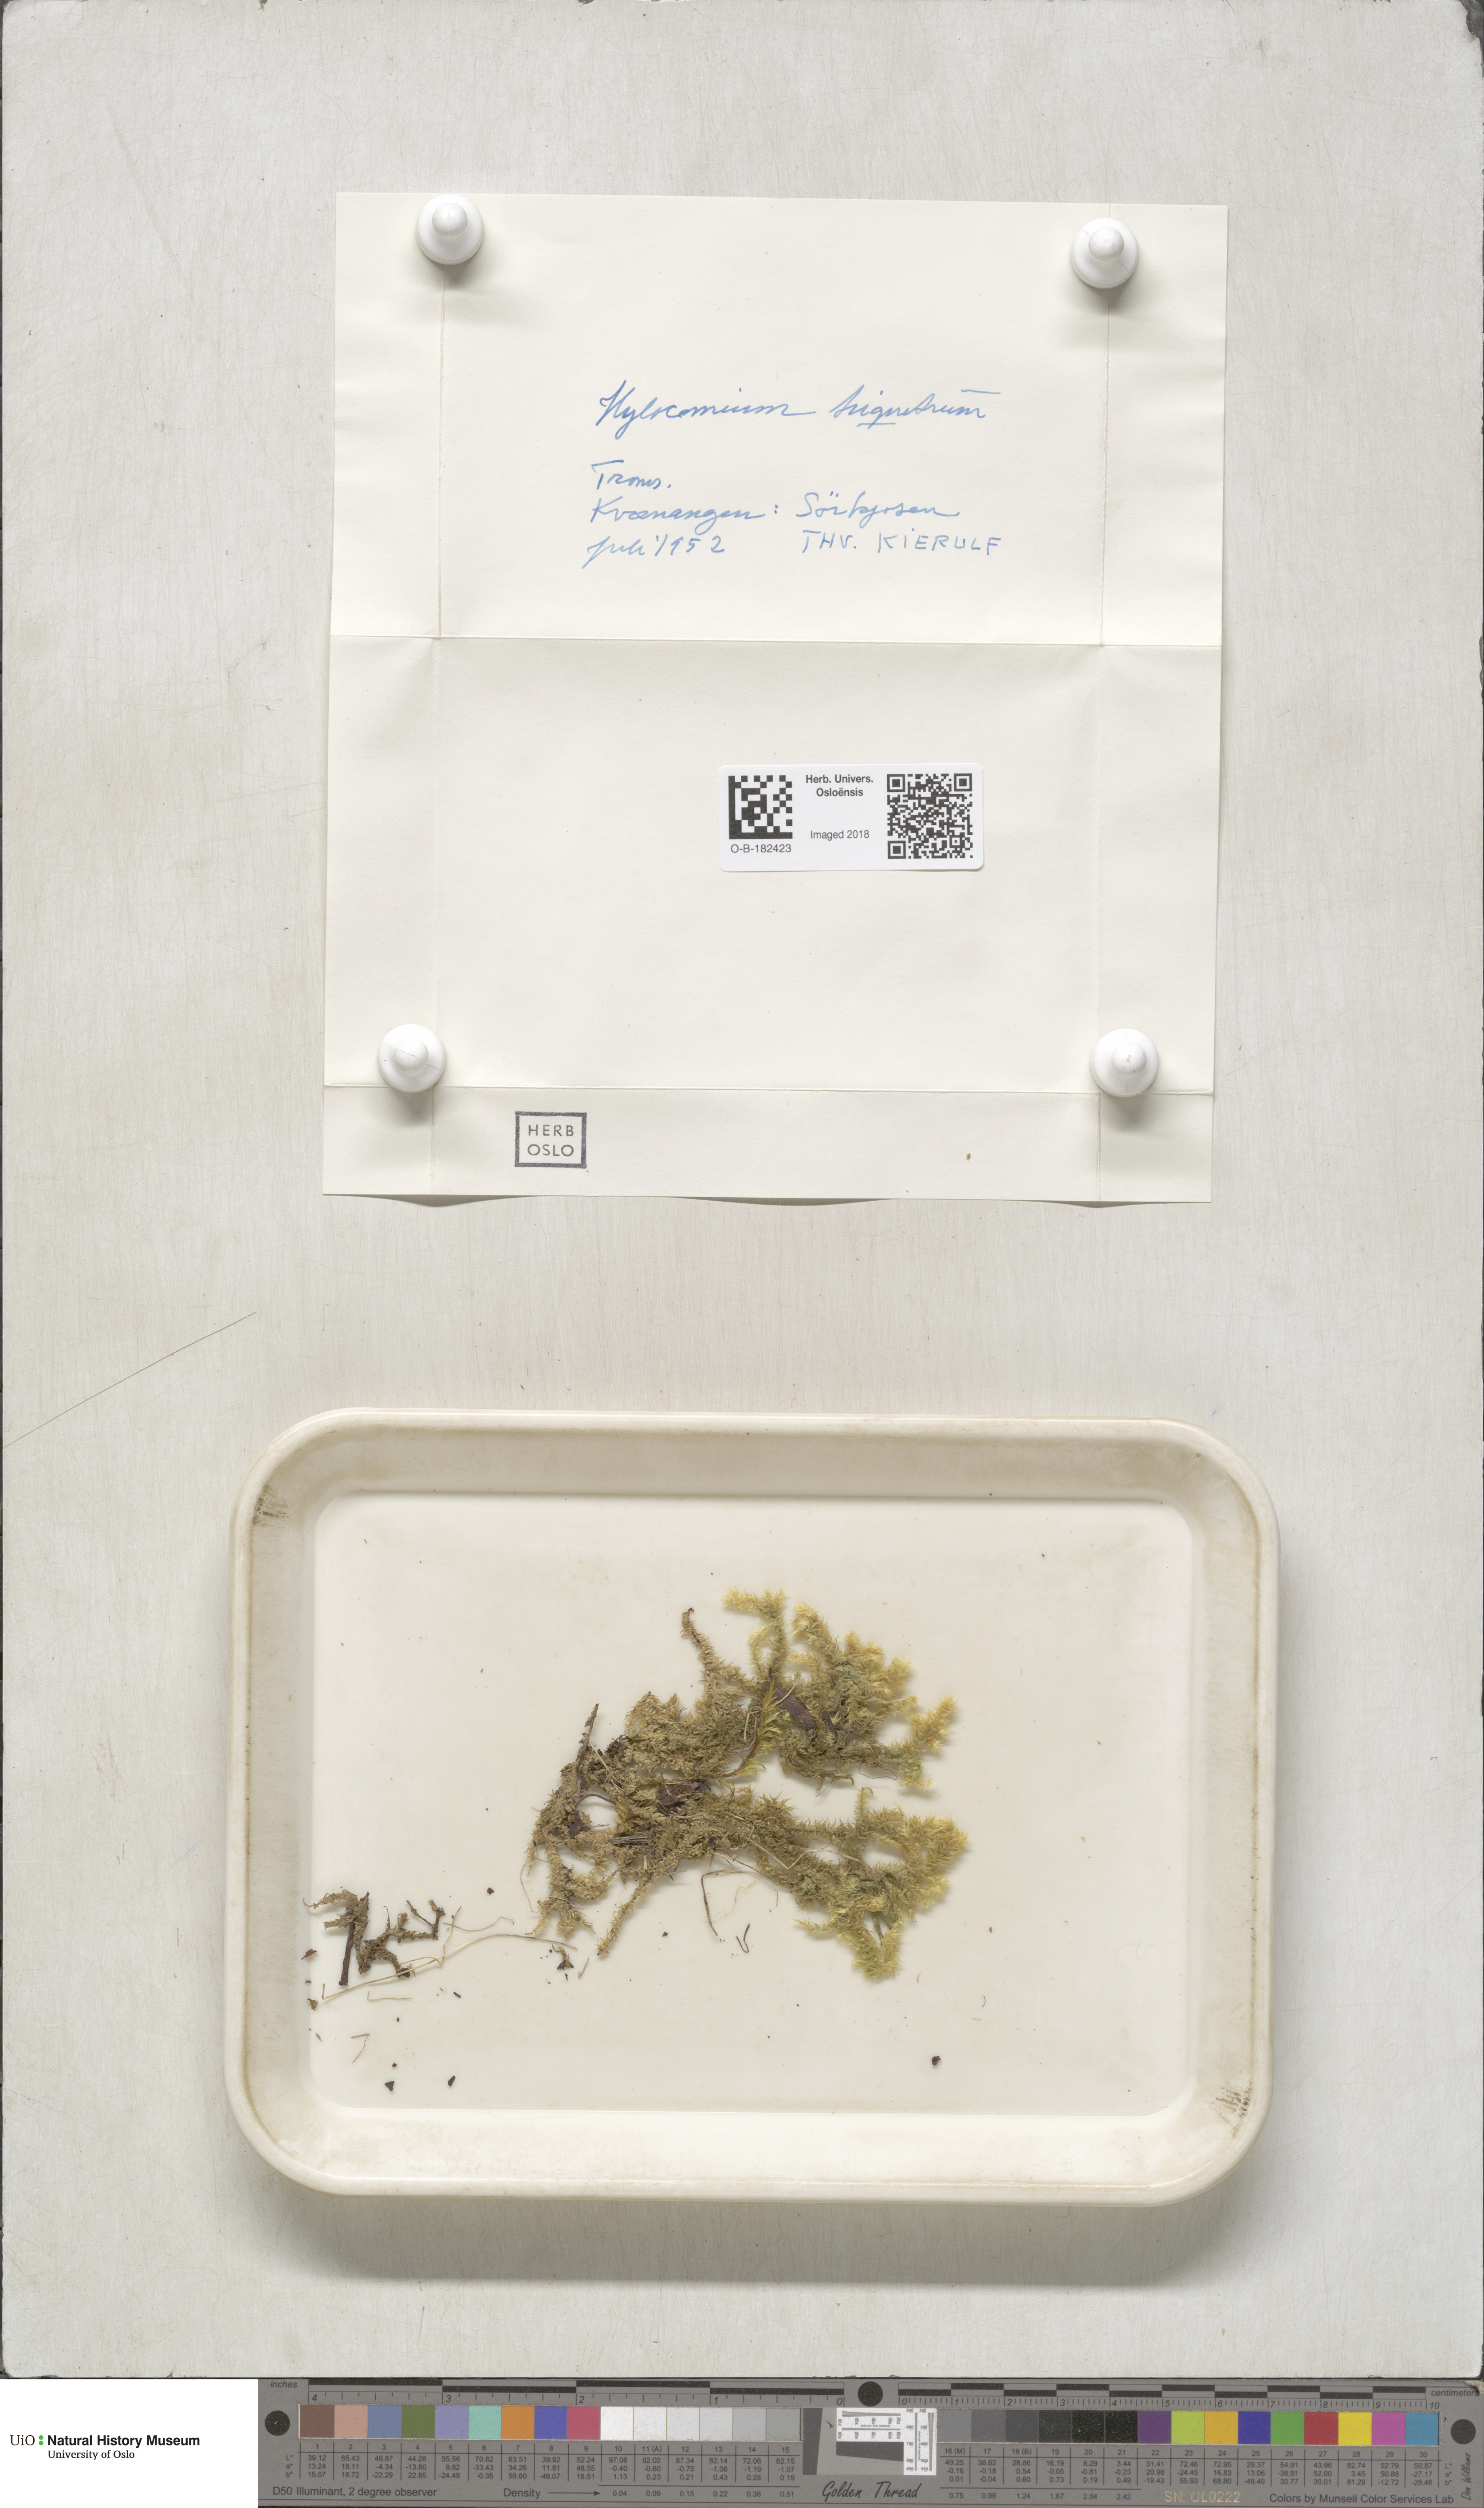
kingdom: Plantae
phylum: Bryophyta
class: Bryopsida
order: Hypnales
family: Hylocomiaceae
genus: Hylocomiadelphus
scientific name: Hylocomiadelphus triquetrus
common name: Rough goose neck moss
